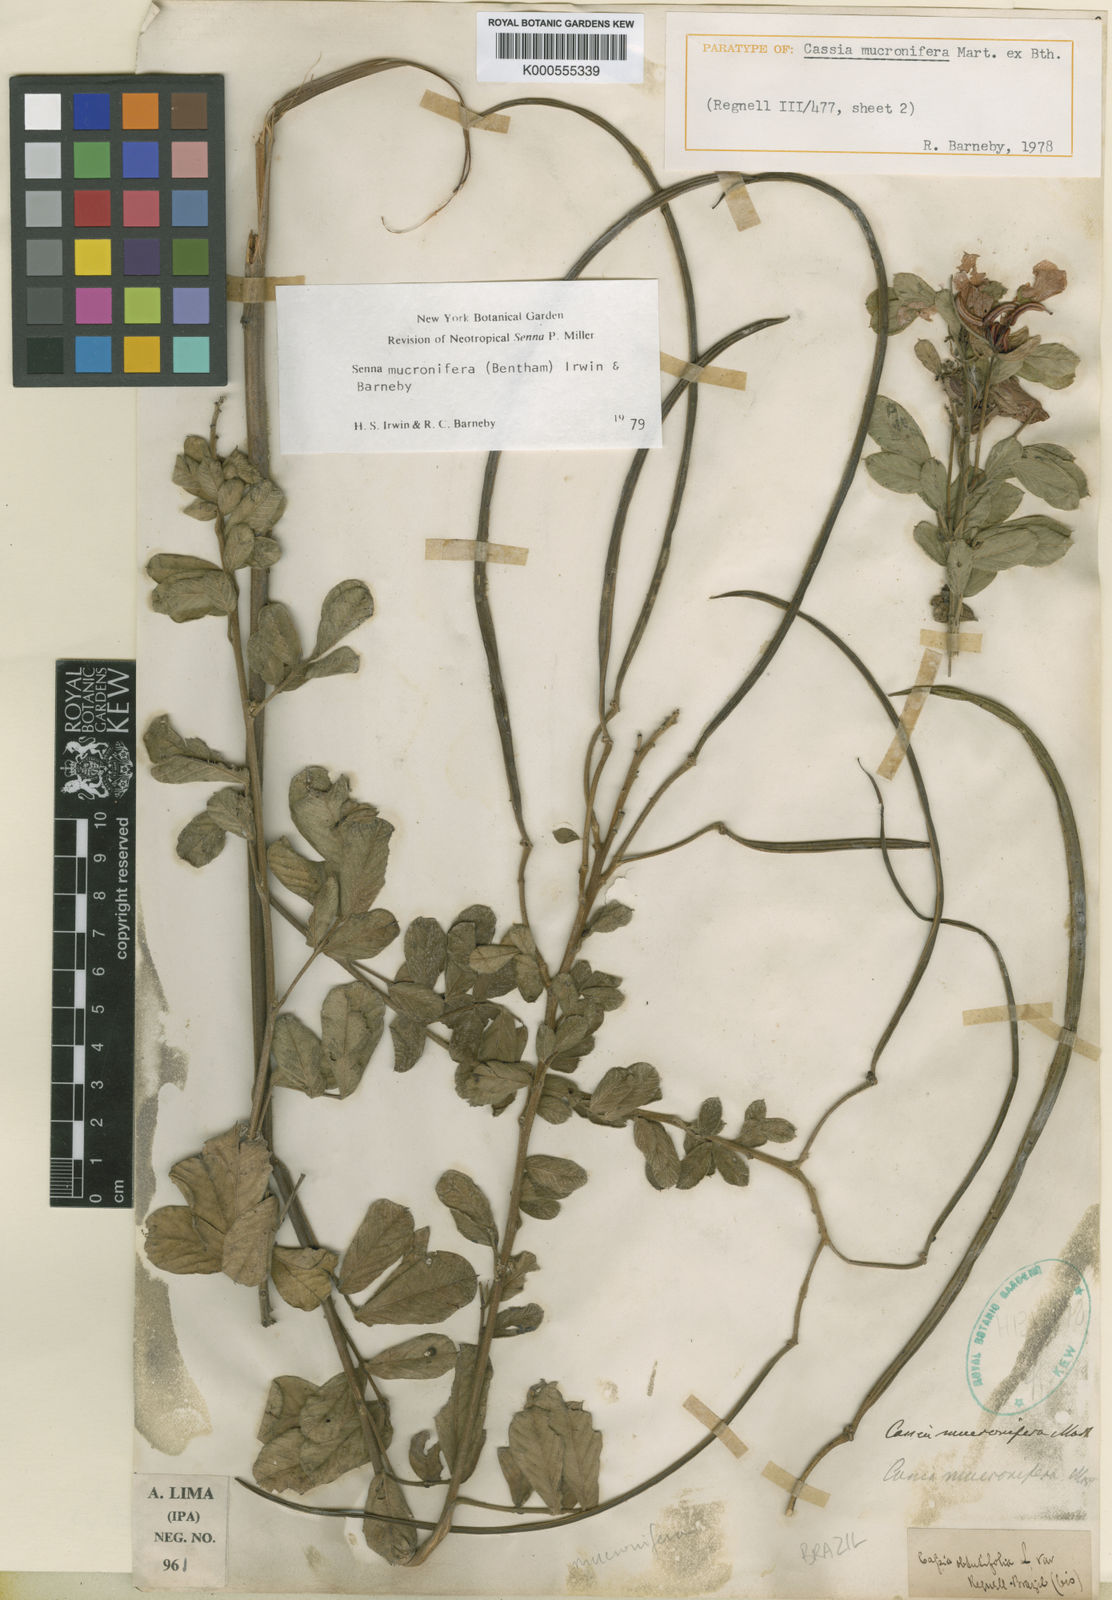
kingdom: Plantae
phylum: Tracheophyta
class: Magnoliopsida
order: Fabales
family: Fabaceae
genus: Senna
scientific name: Senna mucronifera
